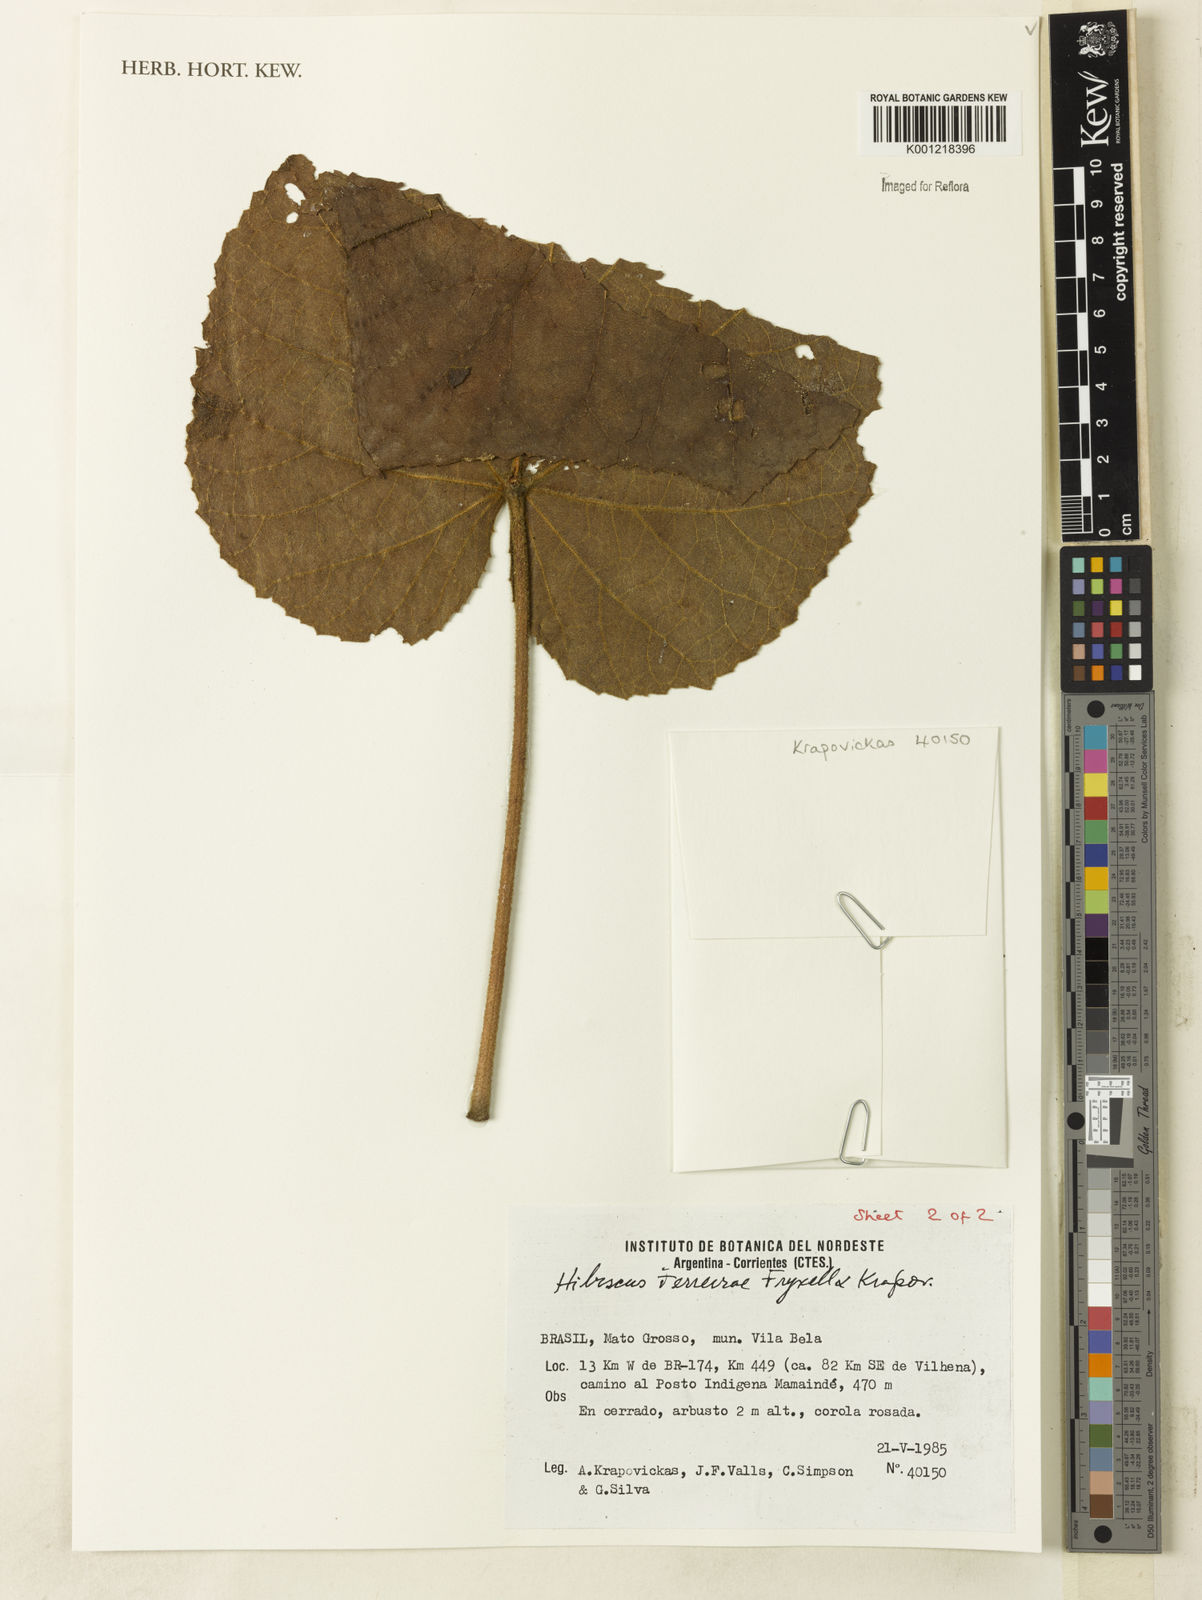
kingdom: Plantae
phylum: Tracheophyta
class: Magnoliopsida
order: Malvales
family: Malvaceae
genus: Hibiscus
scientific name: Hibiscus ferreirae
